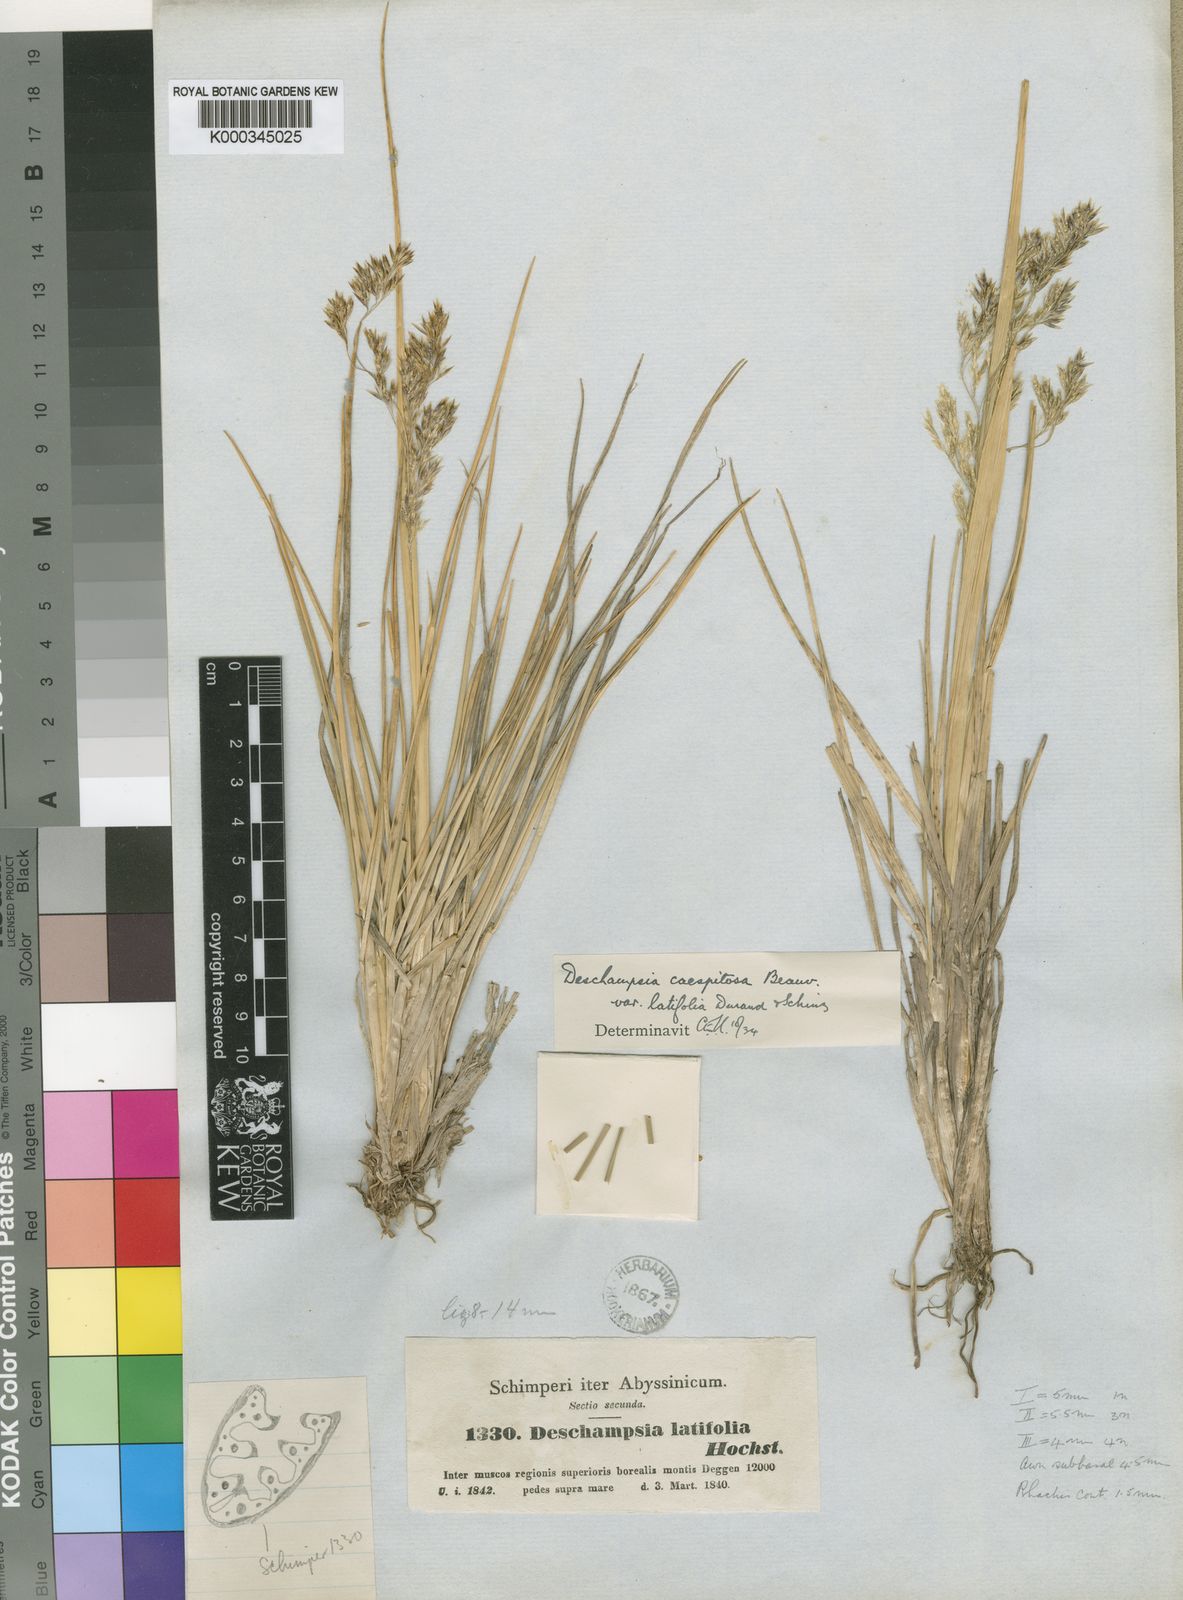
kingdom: Plantae
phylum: Tracheophyta
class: Liliopsida
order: Poales
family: Poaceae
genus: Deschampsia
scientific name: Deschampsia
